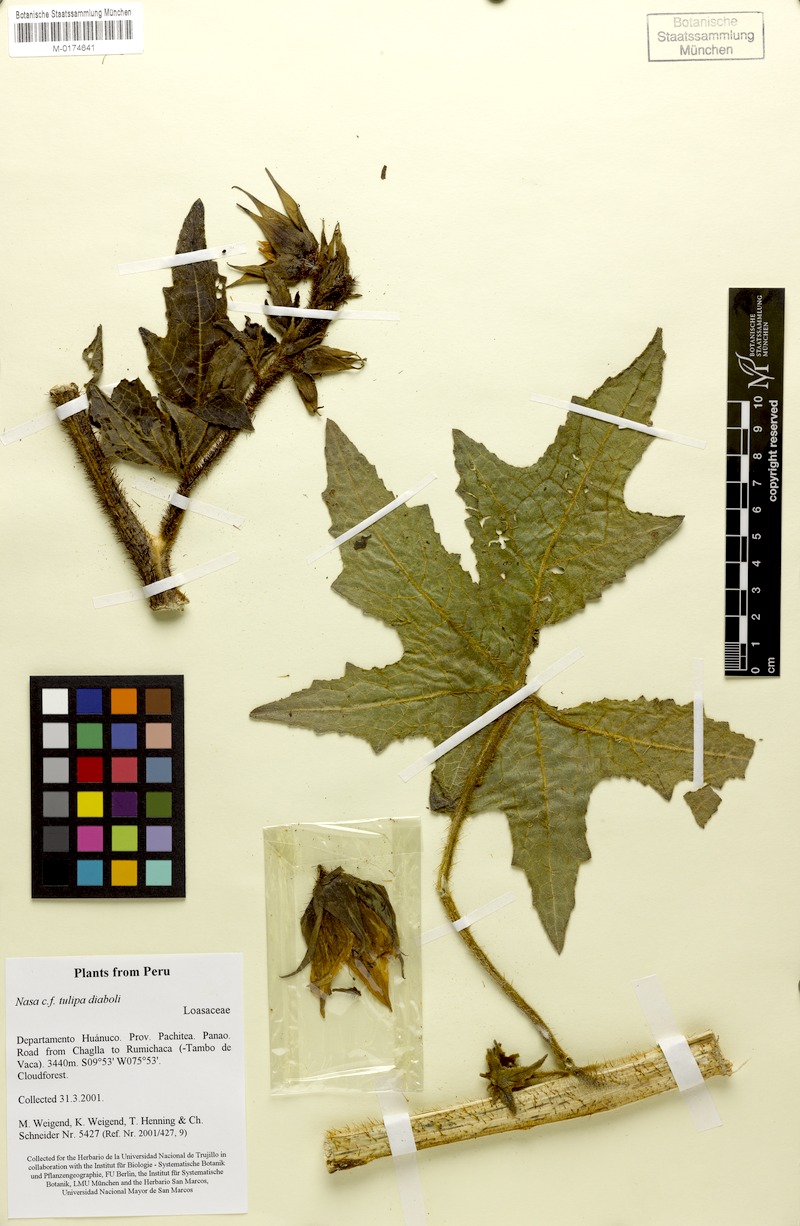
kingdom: Plantae
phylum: Tracheophyta
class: Magnoliopsida
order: Cornales
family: Loasaceae
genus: Nasa
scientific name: Nasa tulipadiaboli
